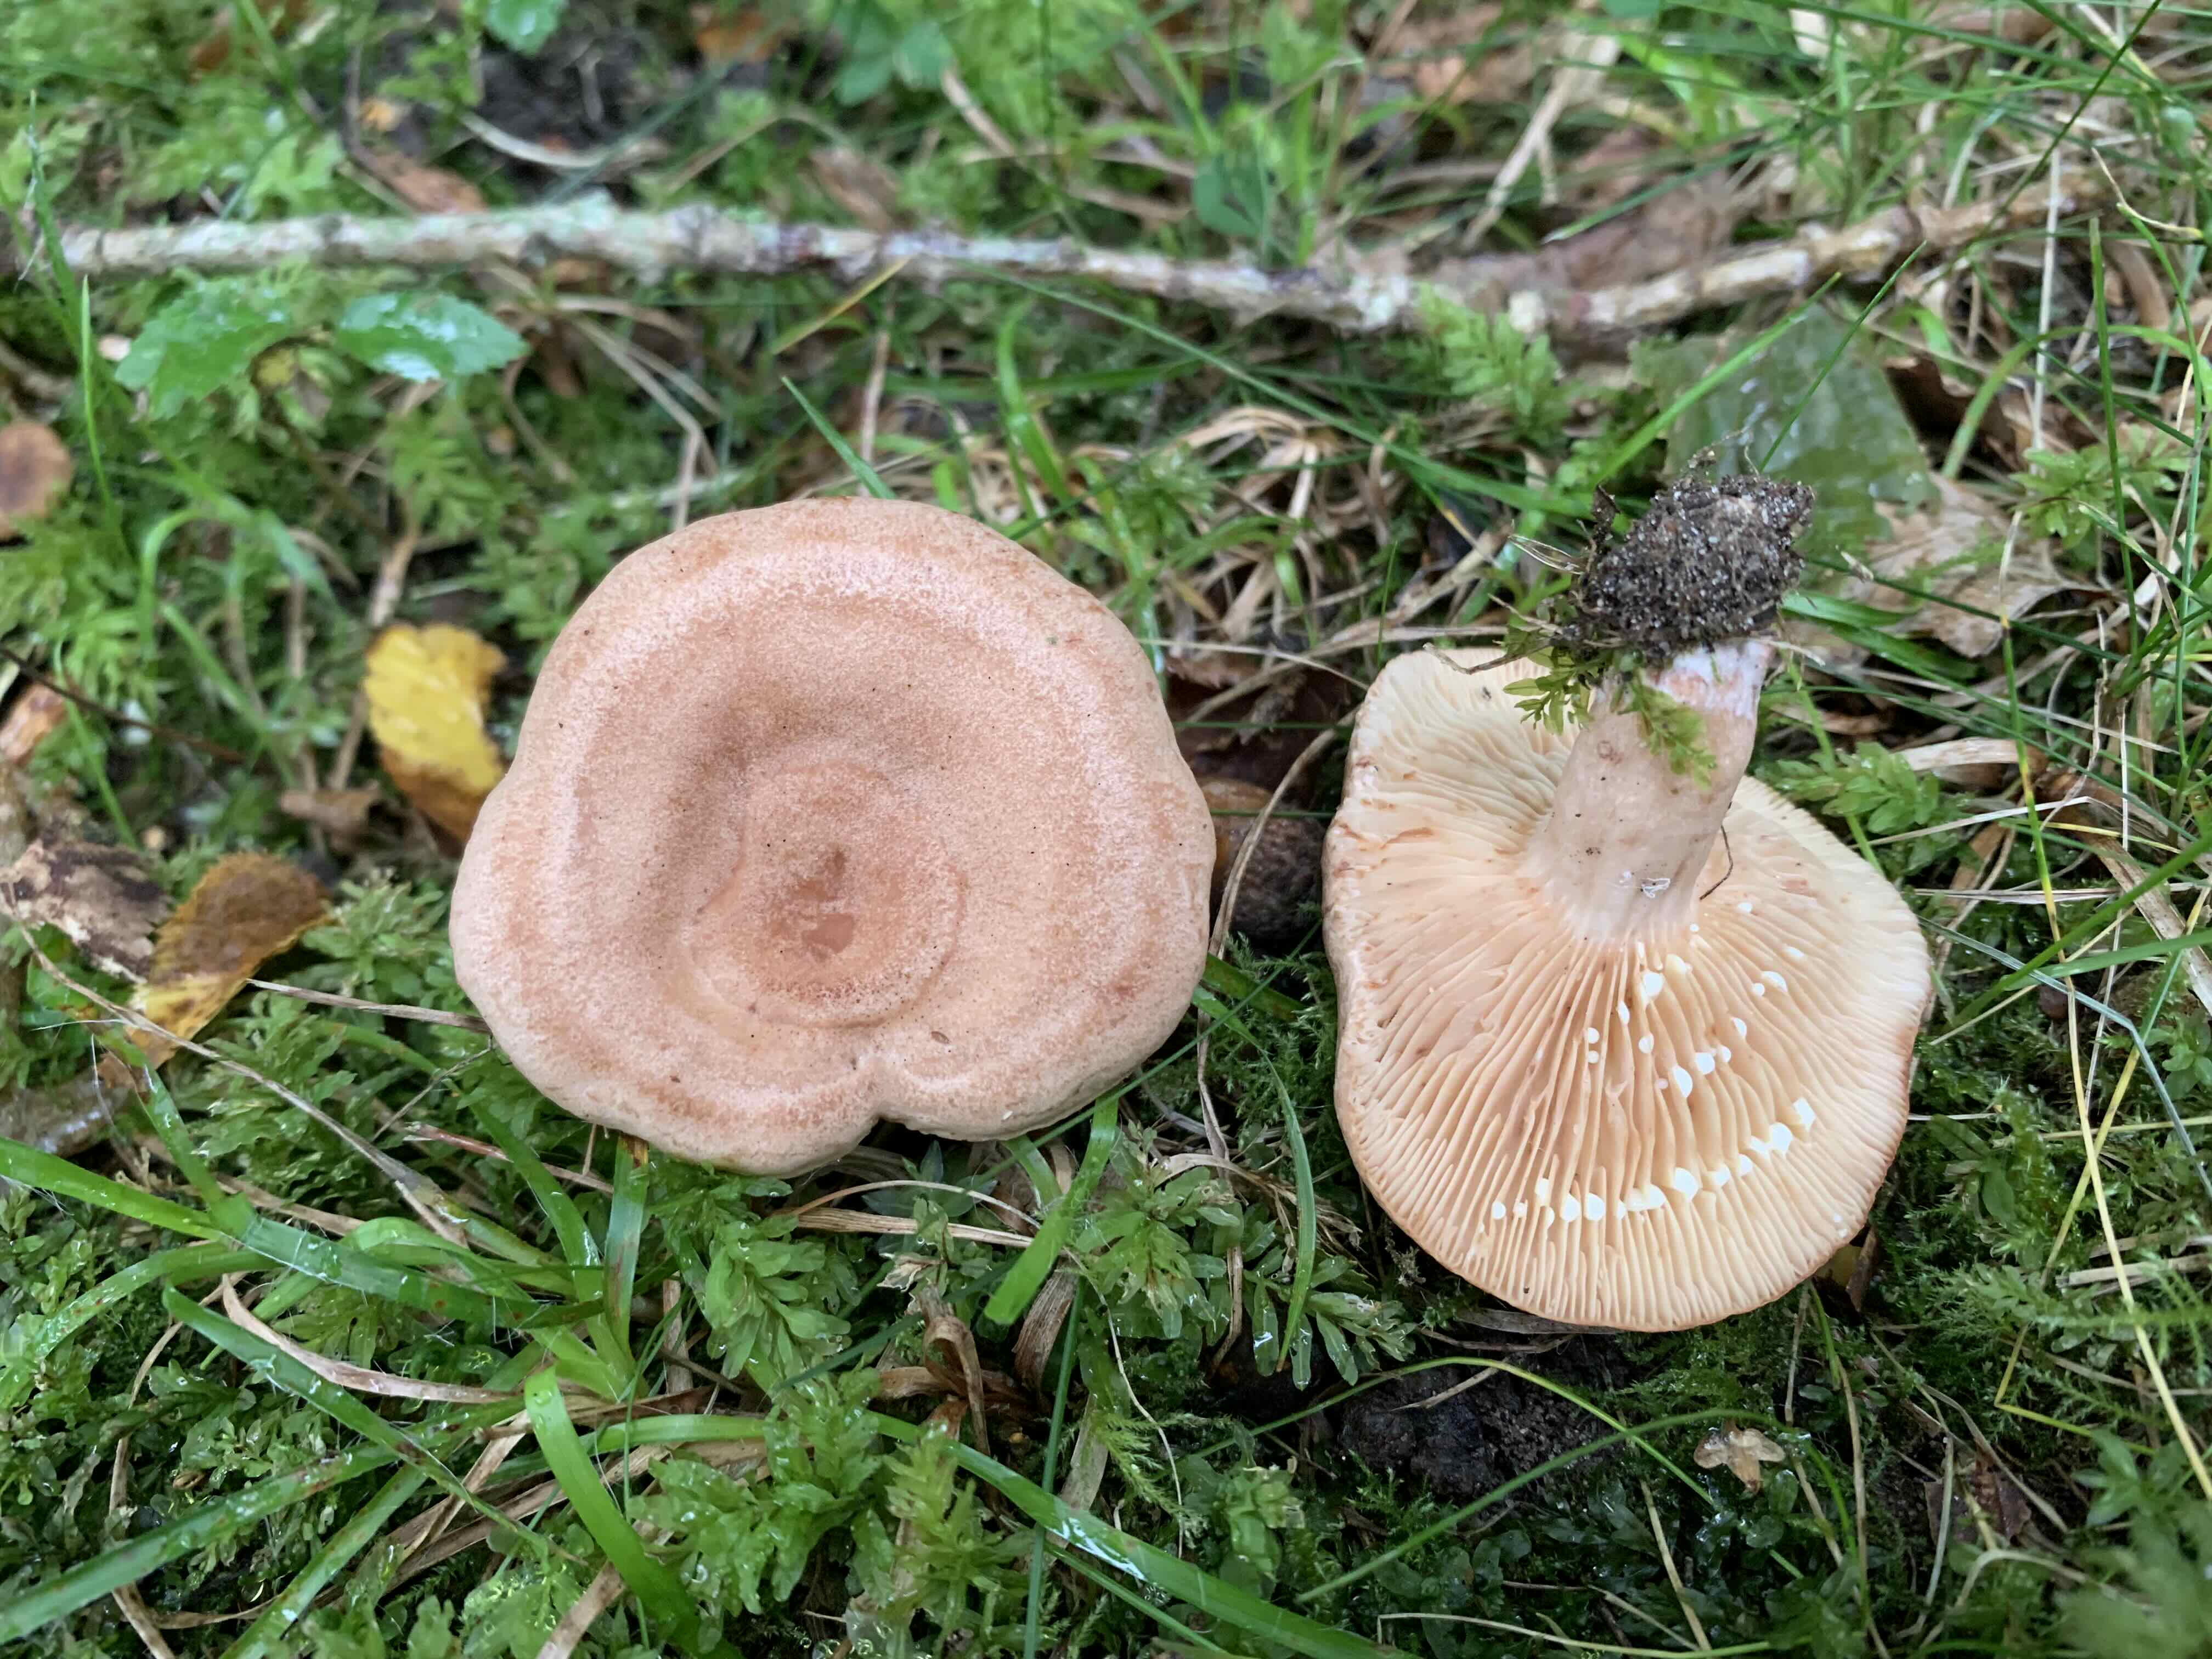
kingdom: Fungi
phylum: Basidiomycota
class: Agaricomycetes
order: Russulales
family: Russulaceae
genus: Lactarius
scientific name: Lactarius quietus
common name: ege-mælkehat
